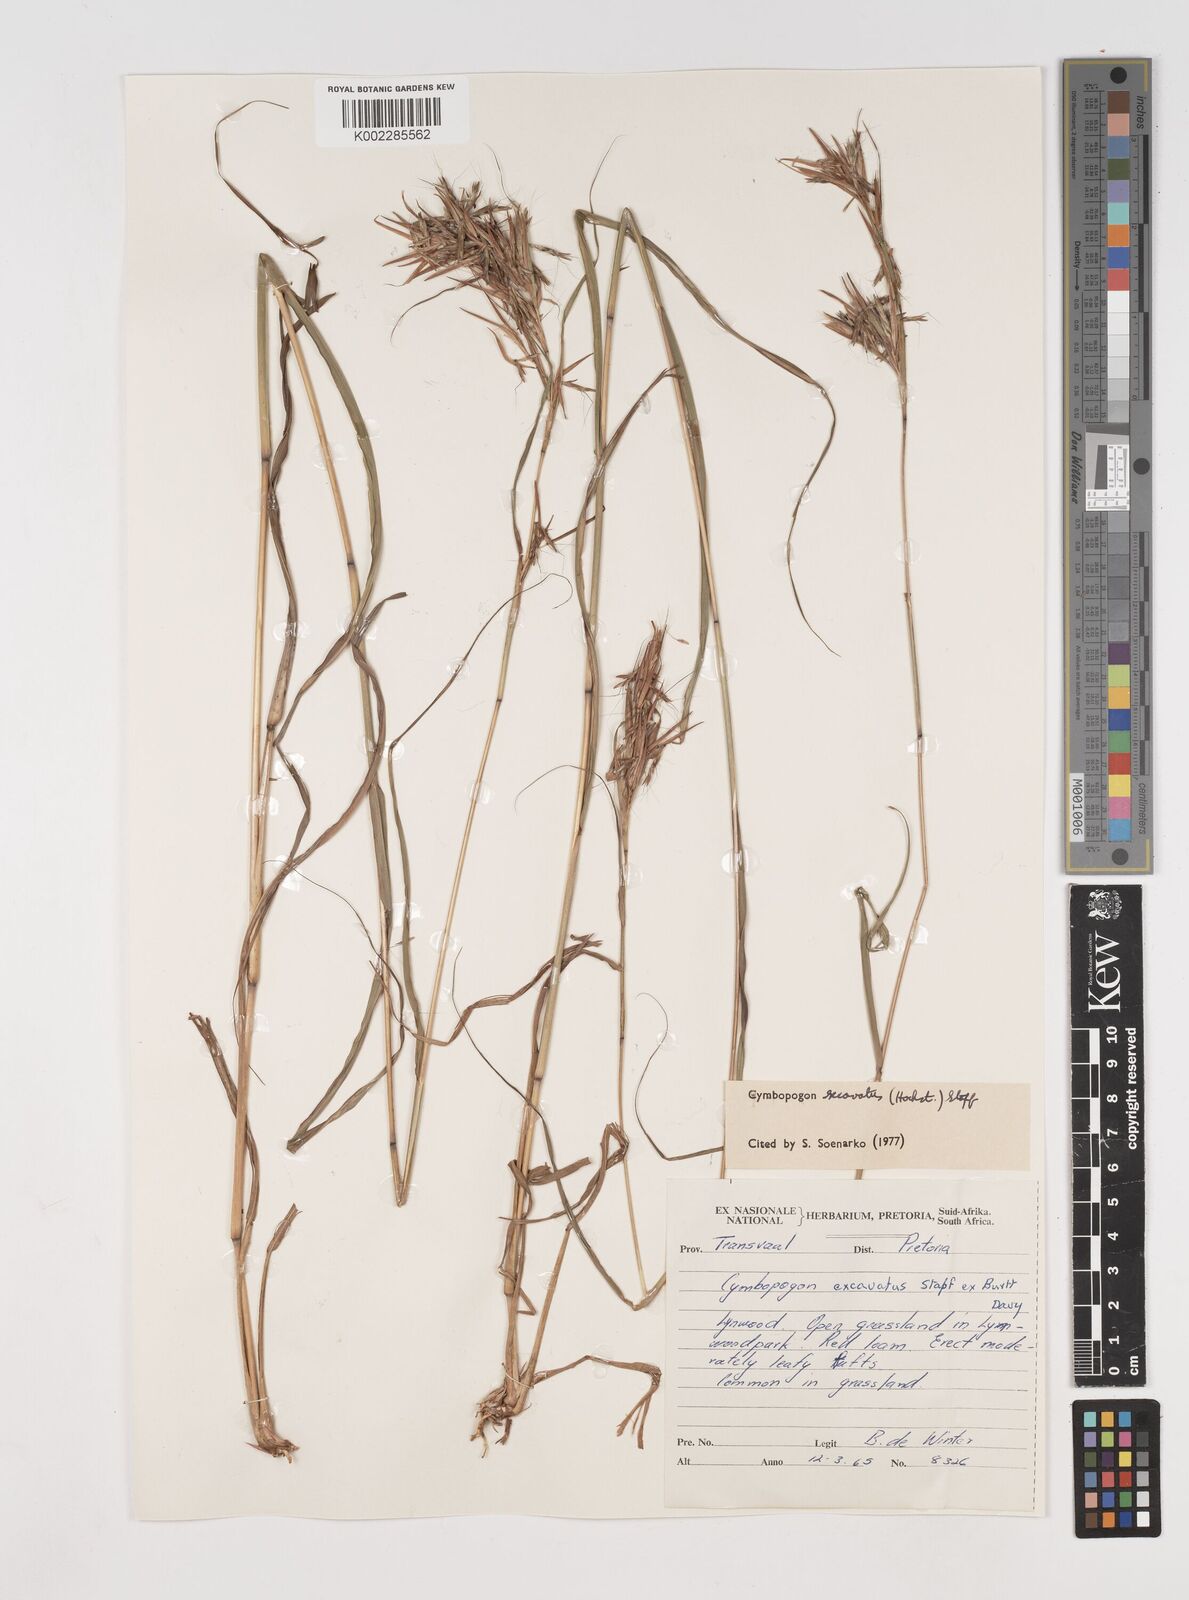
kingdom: Plantae
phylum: Tracheophyta
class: Liliopsida
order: Poales
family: Poaceae
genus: Cymbopogon
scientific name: Cymbopogon caesius
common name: Kachi grass
